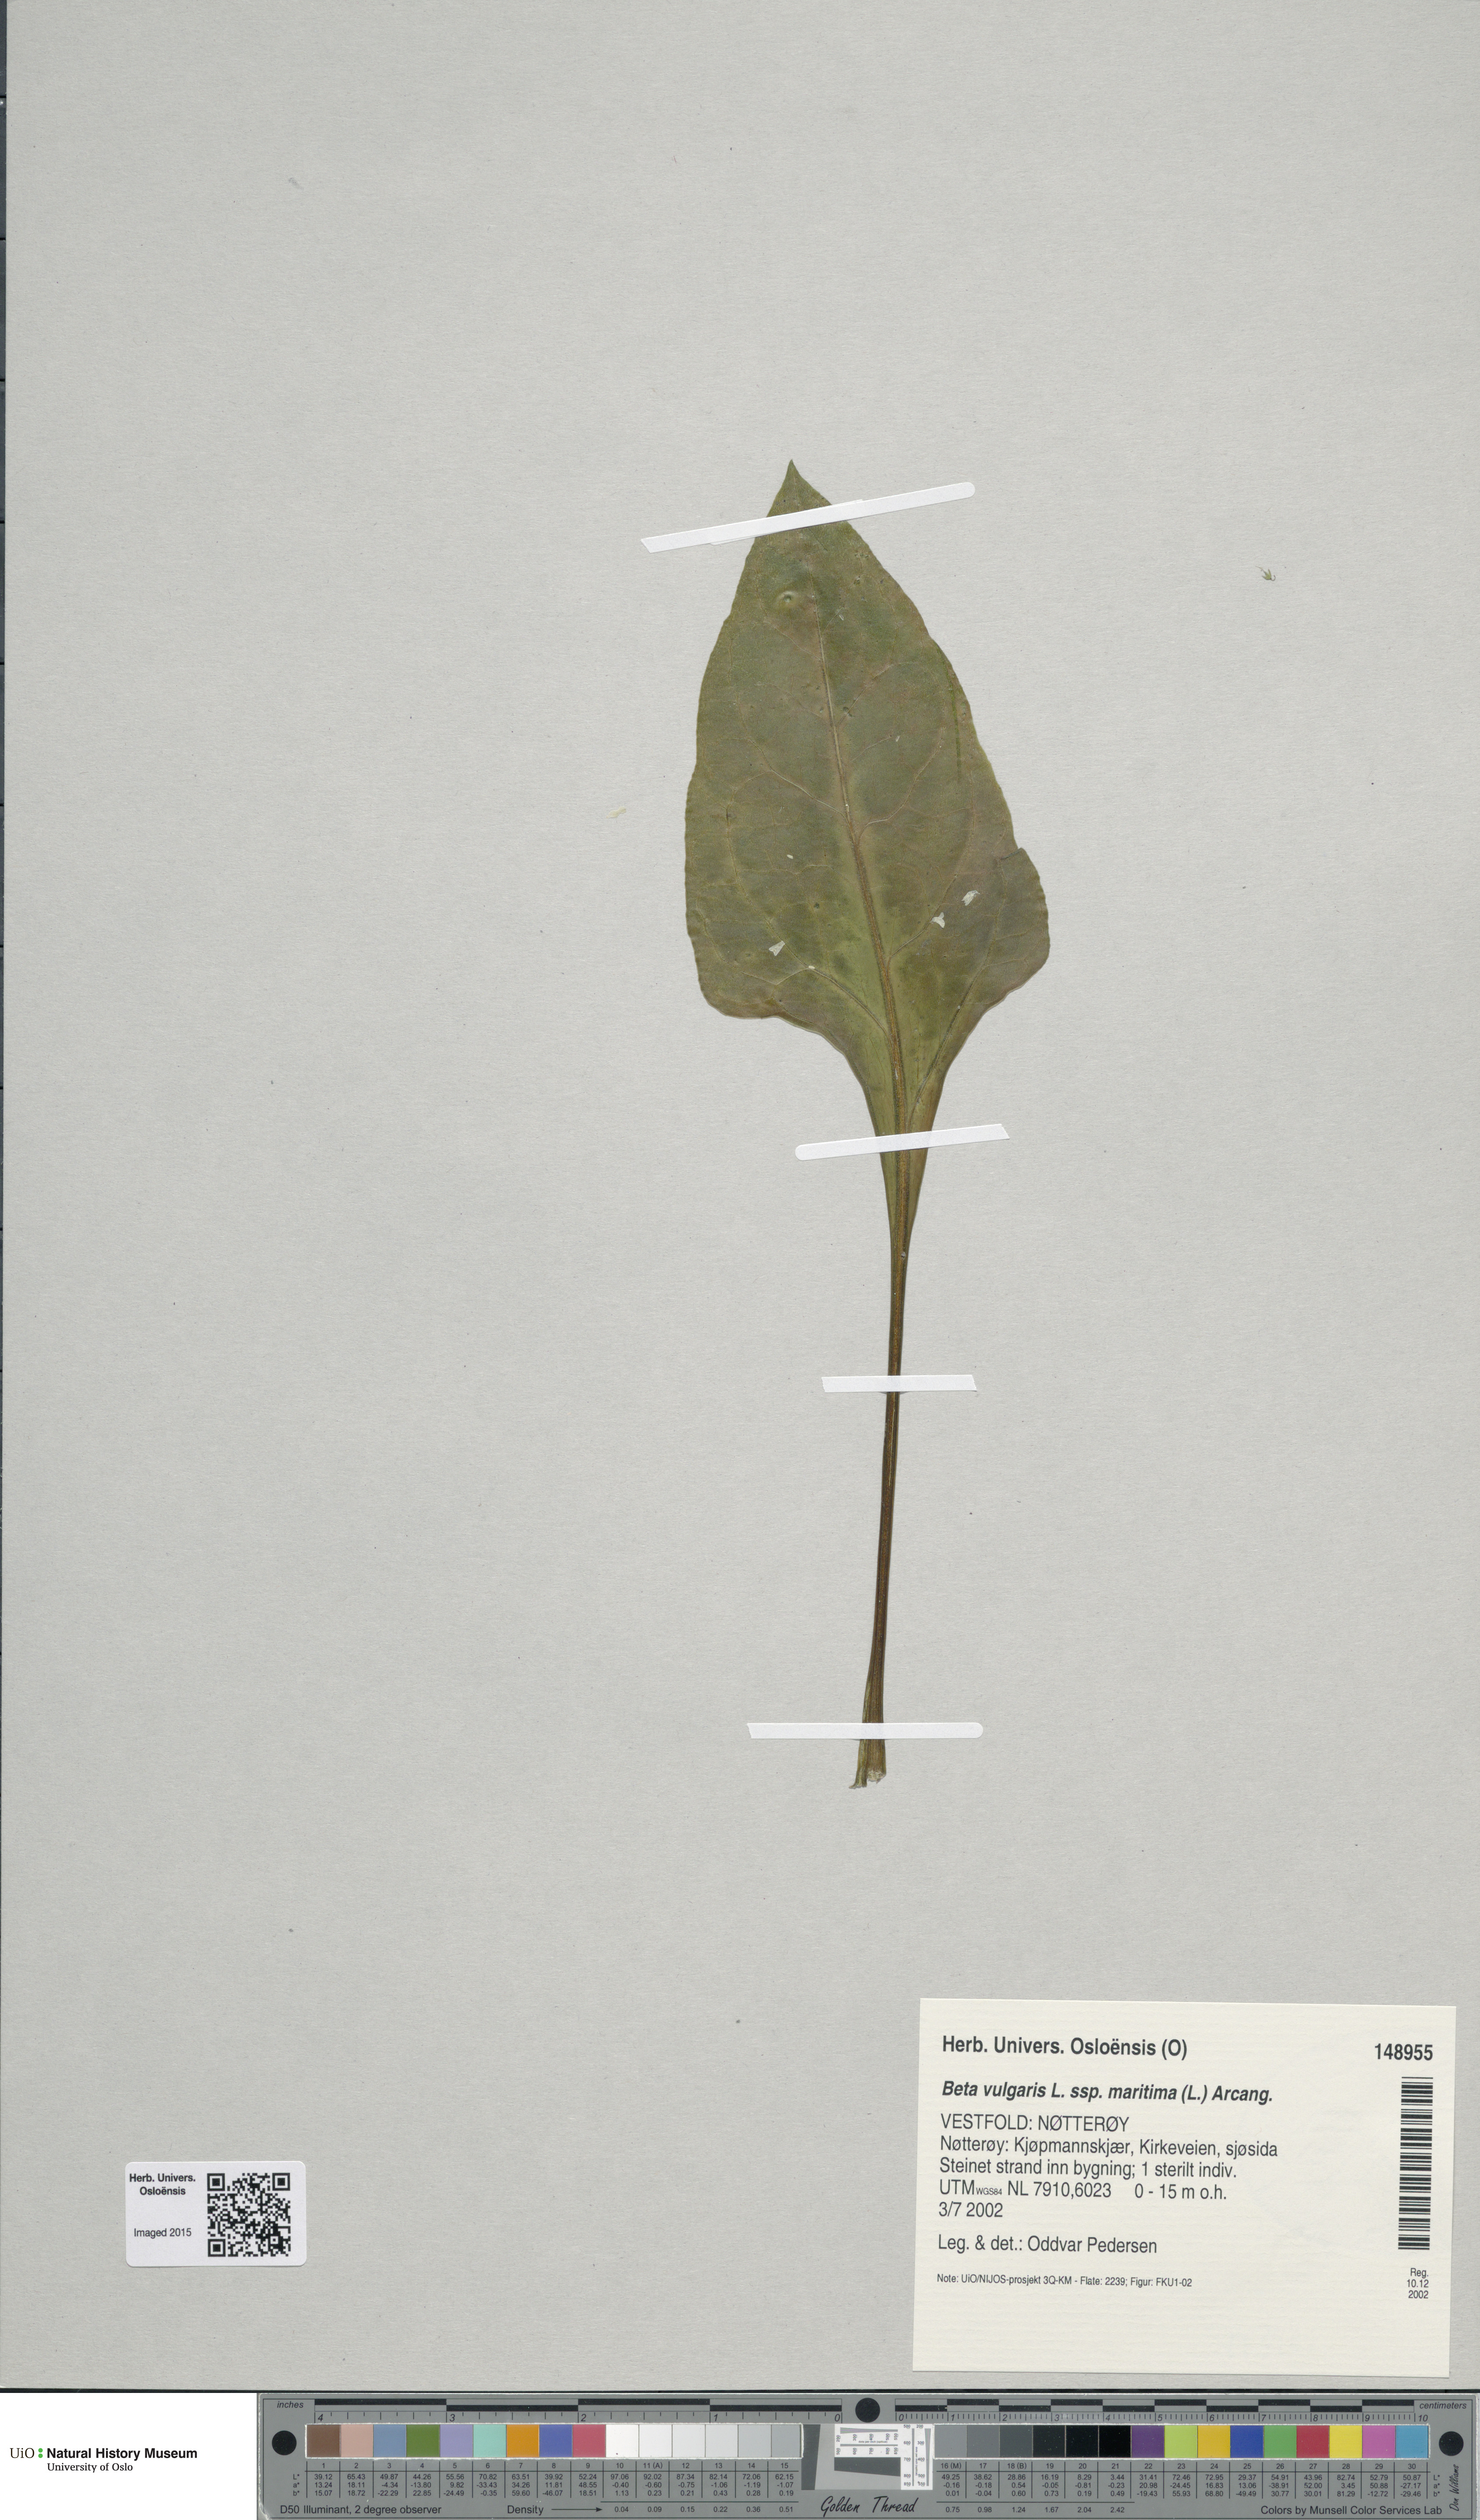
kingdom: Plantae
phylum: Tracheophyta
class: Magnoliopsida
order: Caryophyllales
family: Amaranthaceae
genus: Beta
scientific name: Beta maritima
